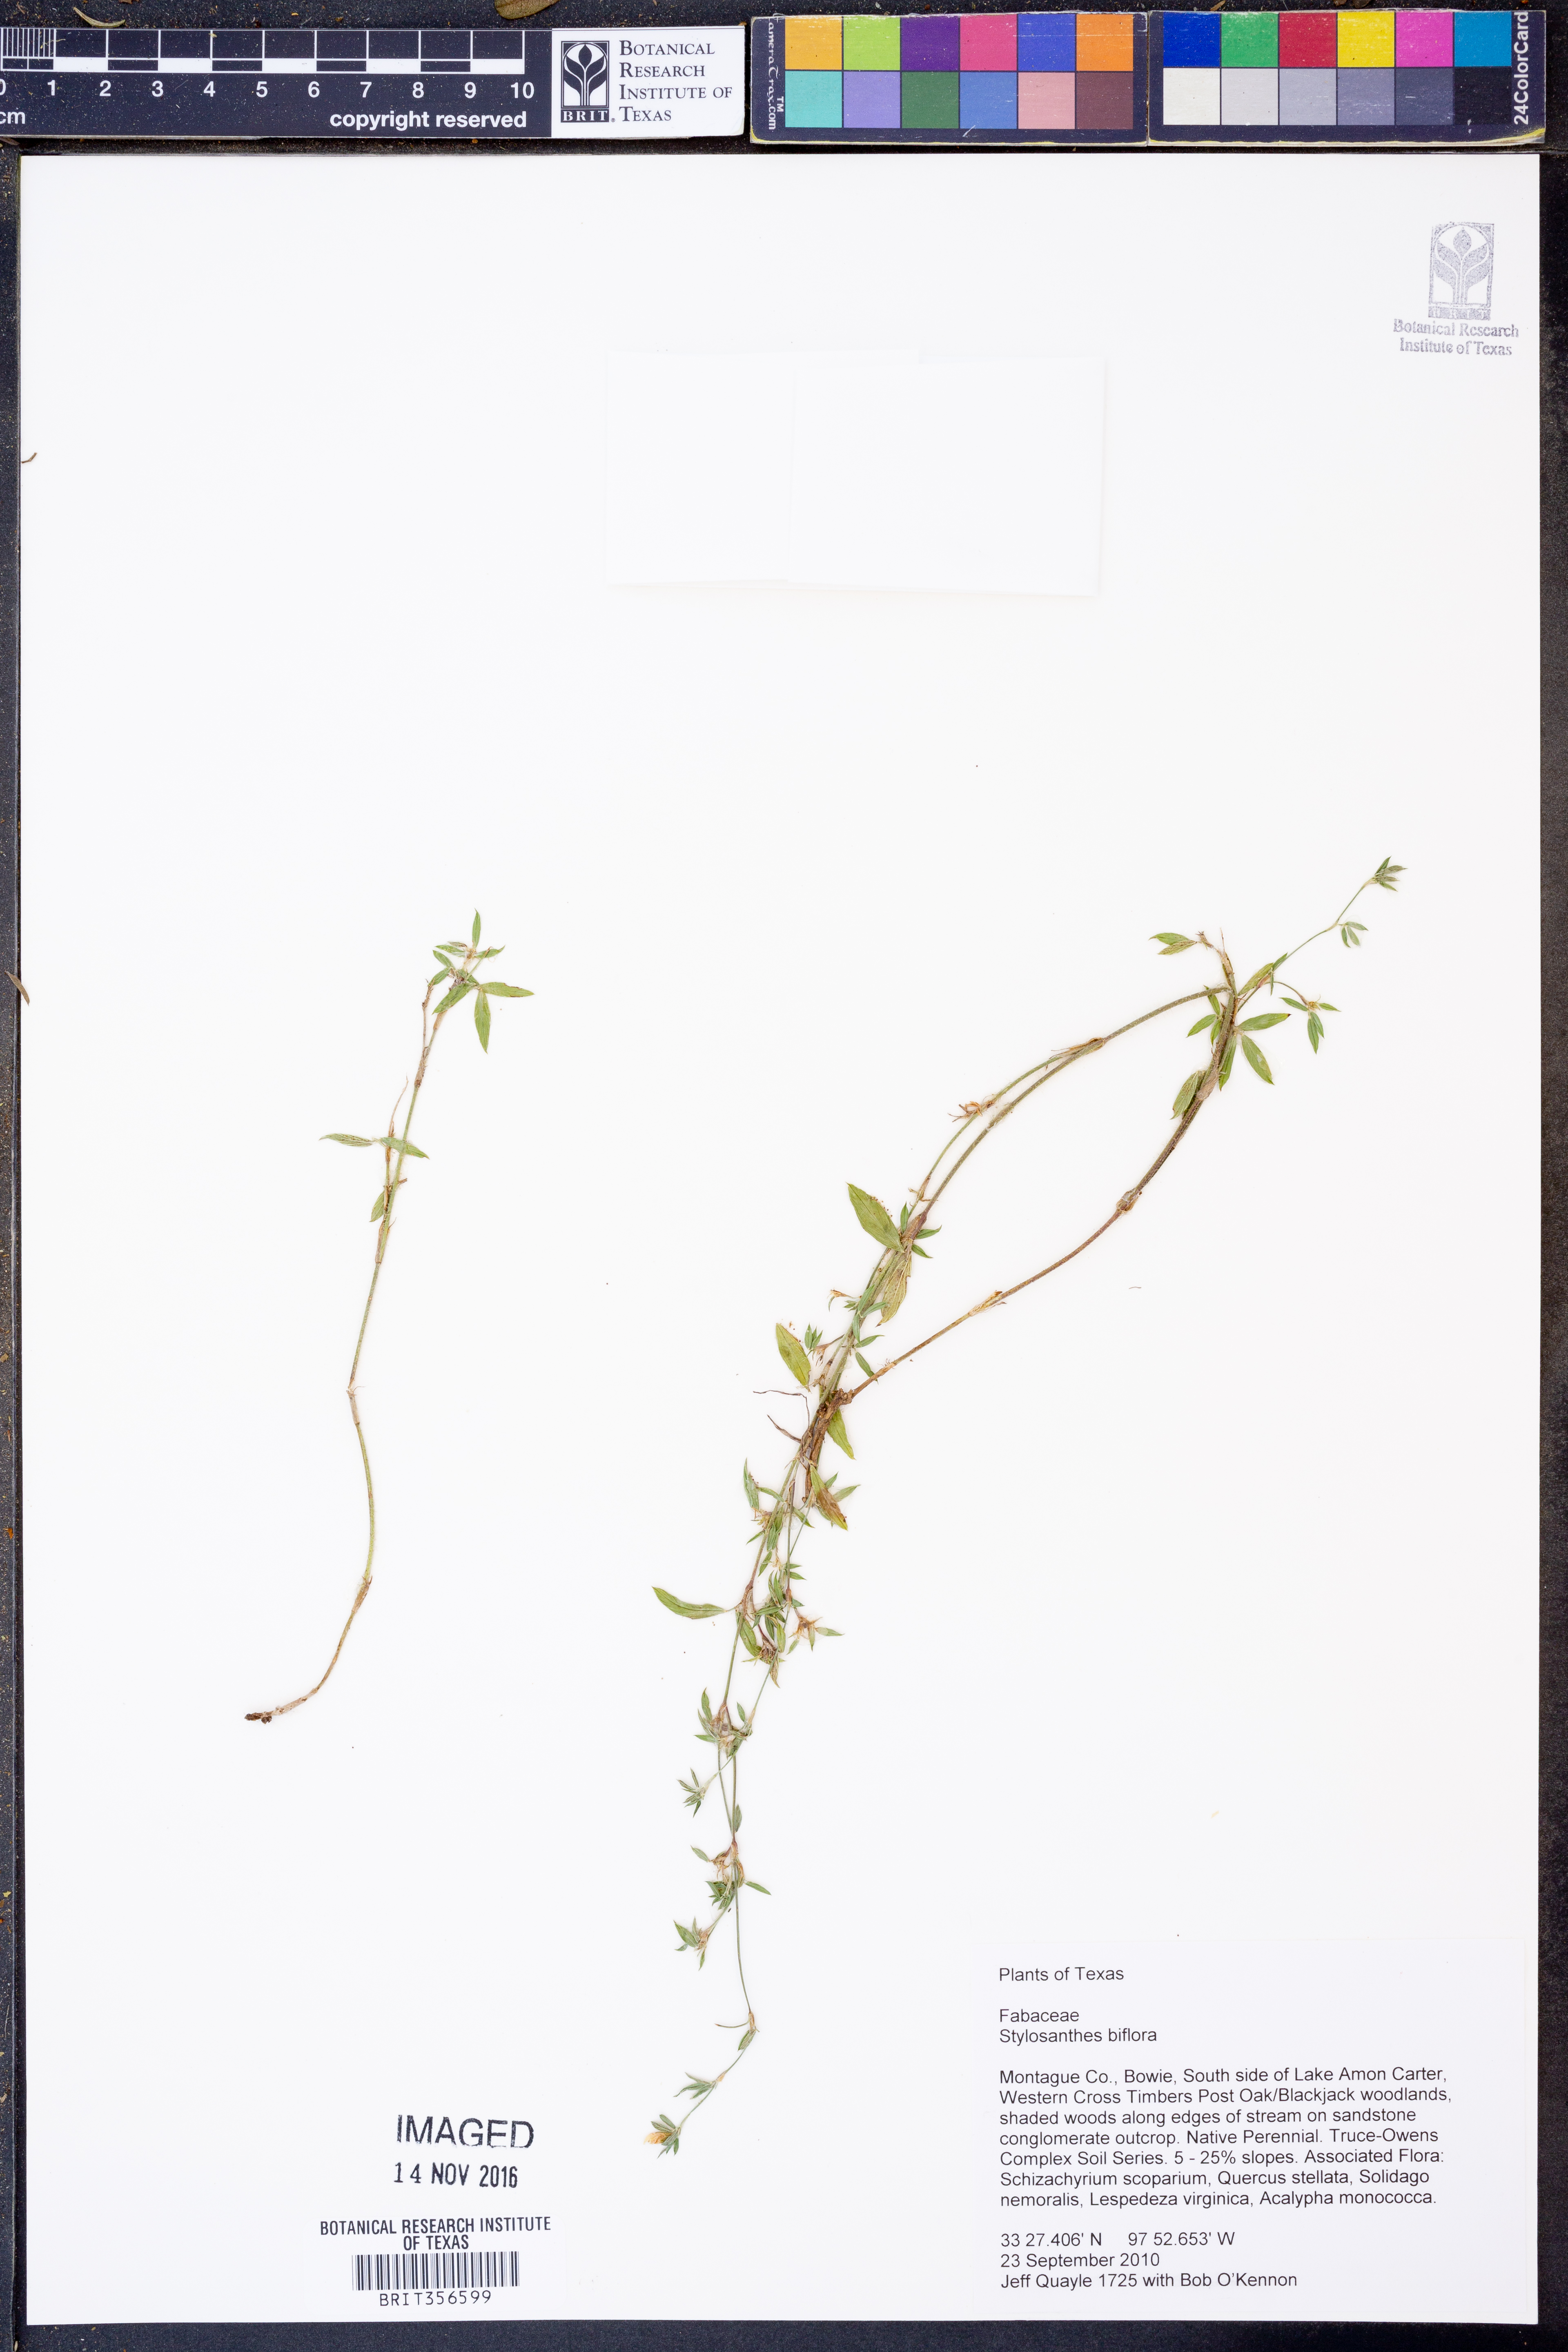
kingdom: Plantae
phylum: Tracheophyta
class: Magnoliopsida
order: Fabales
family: Fabaceae
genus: Stylosanthes
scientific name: Stylosanthes biflora
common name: Two-flower pencil-flower
